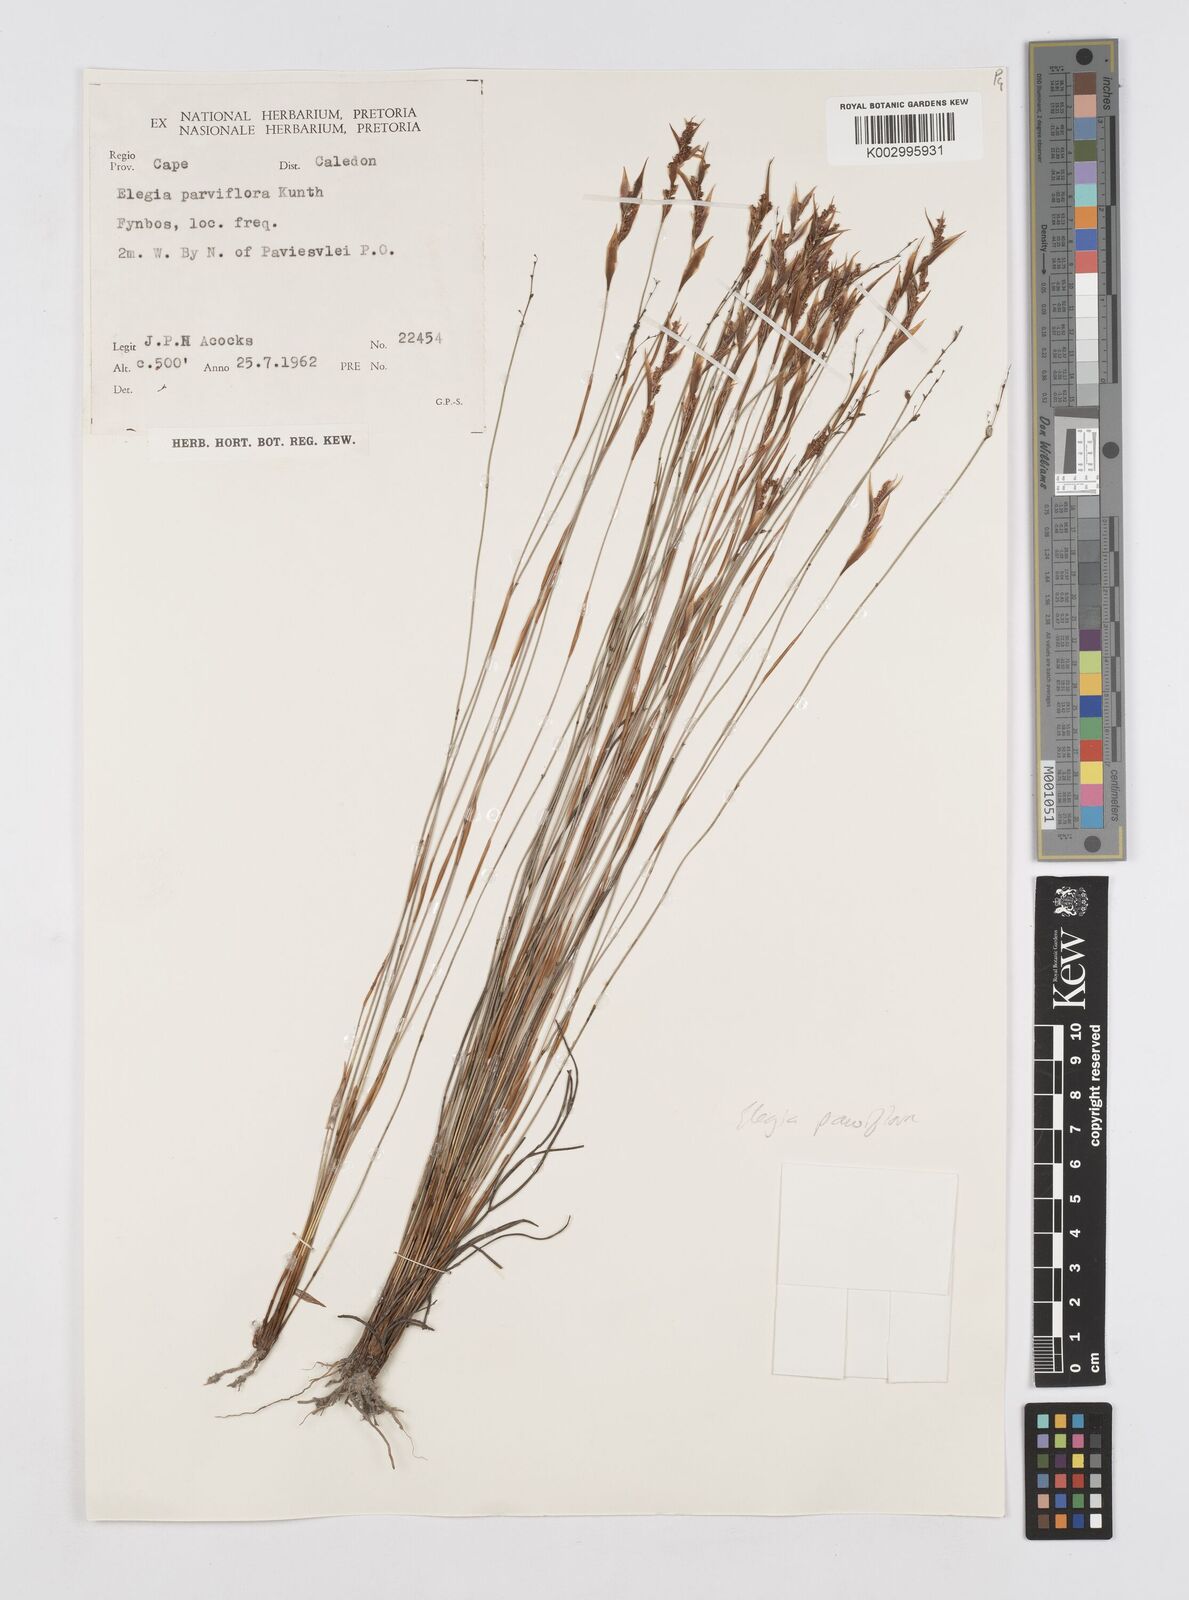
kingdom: Plantae
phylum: Tracheophyta
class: Liliopsida
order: Poales
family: Restionaceae
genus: Cannomois
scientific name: Cannomois parviflora
